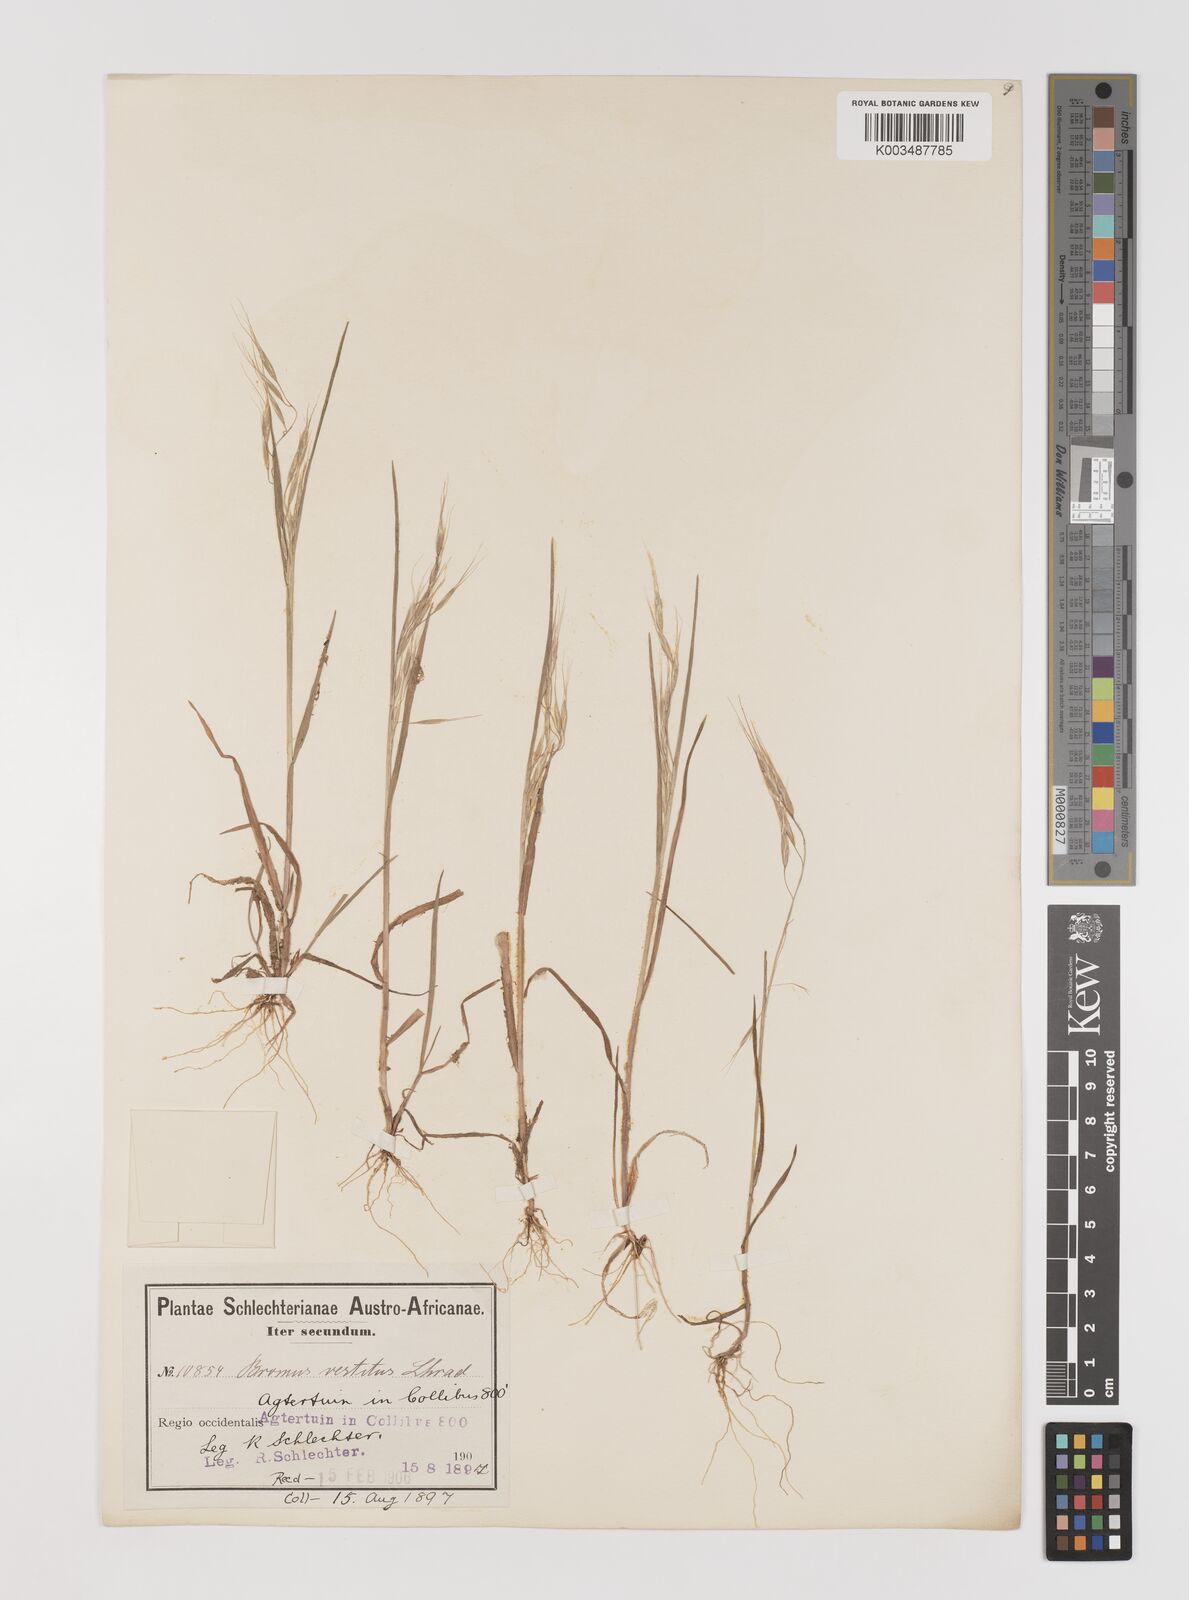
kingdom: Plantae
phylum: Tracheophyta
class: Liliopsida
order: Poales
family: Poaceae
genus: Bromus
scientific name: Bromus pectinatus
